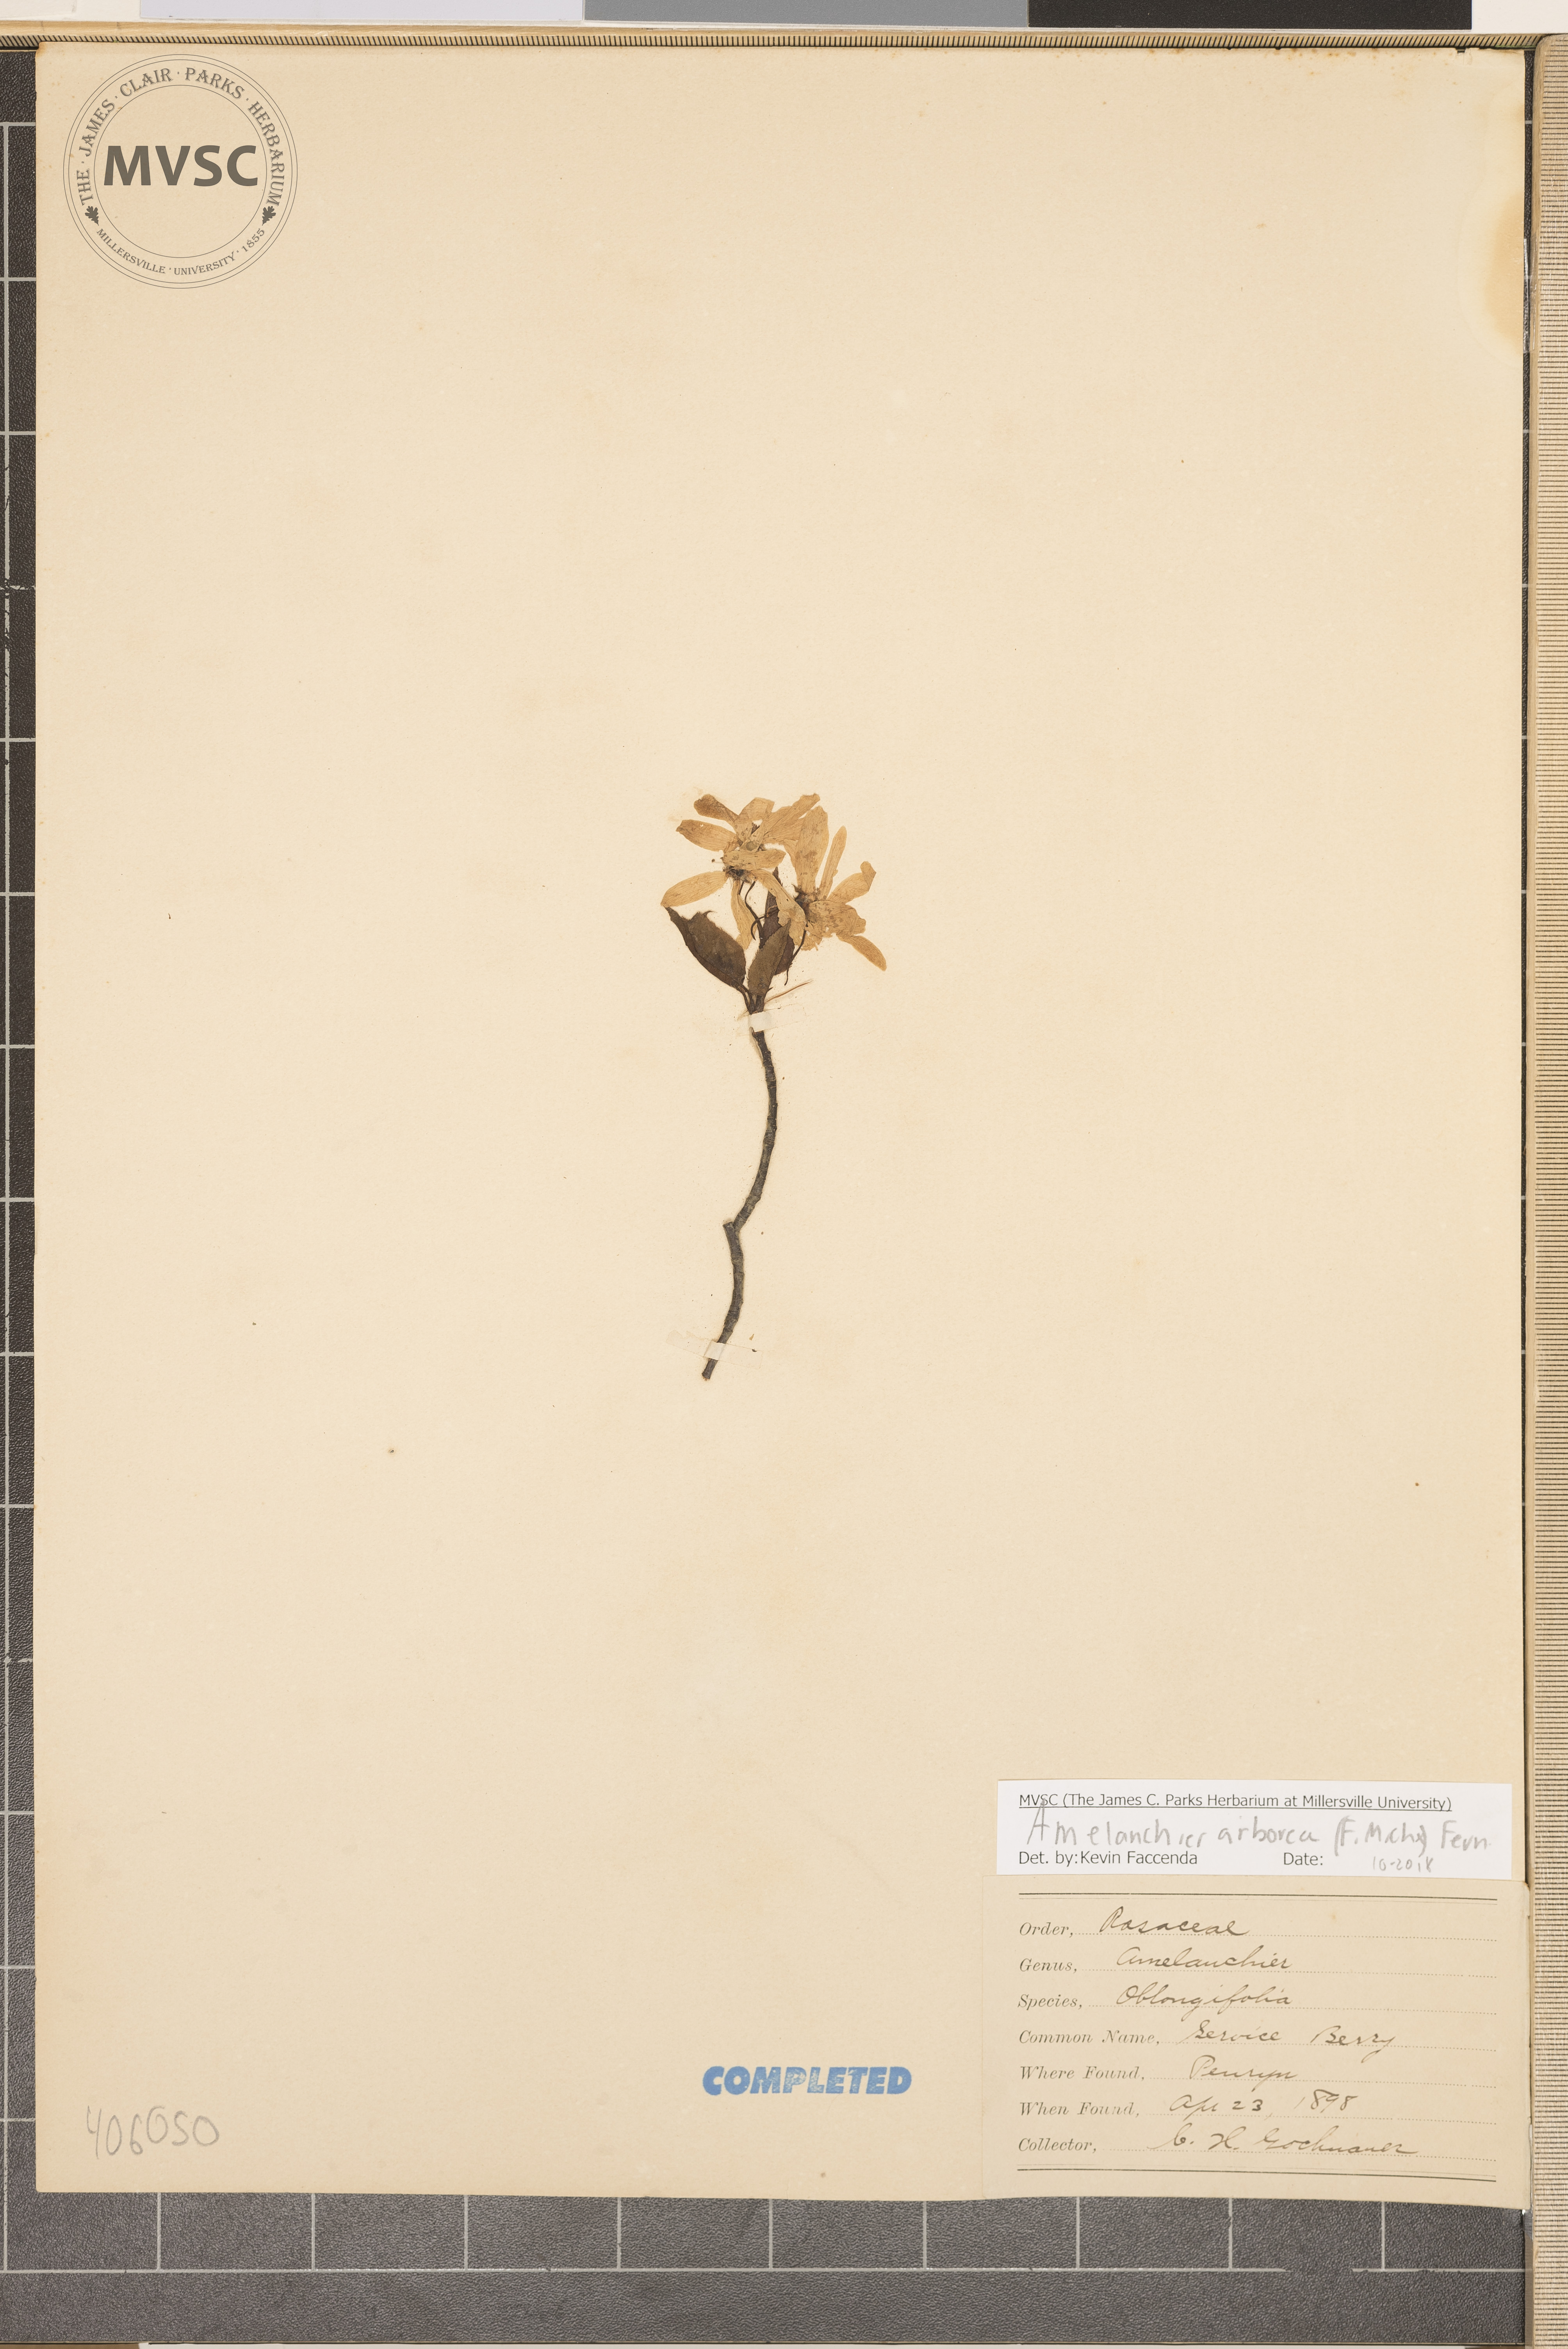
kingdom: Plantae
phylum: Tracheophyta
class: Magnoliopsida
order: Rosales
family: Rosaceae
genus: Amelanchier
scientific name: Amelanchier arborea
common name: Downy serviceberry
